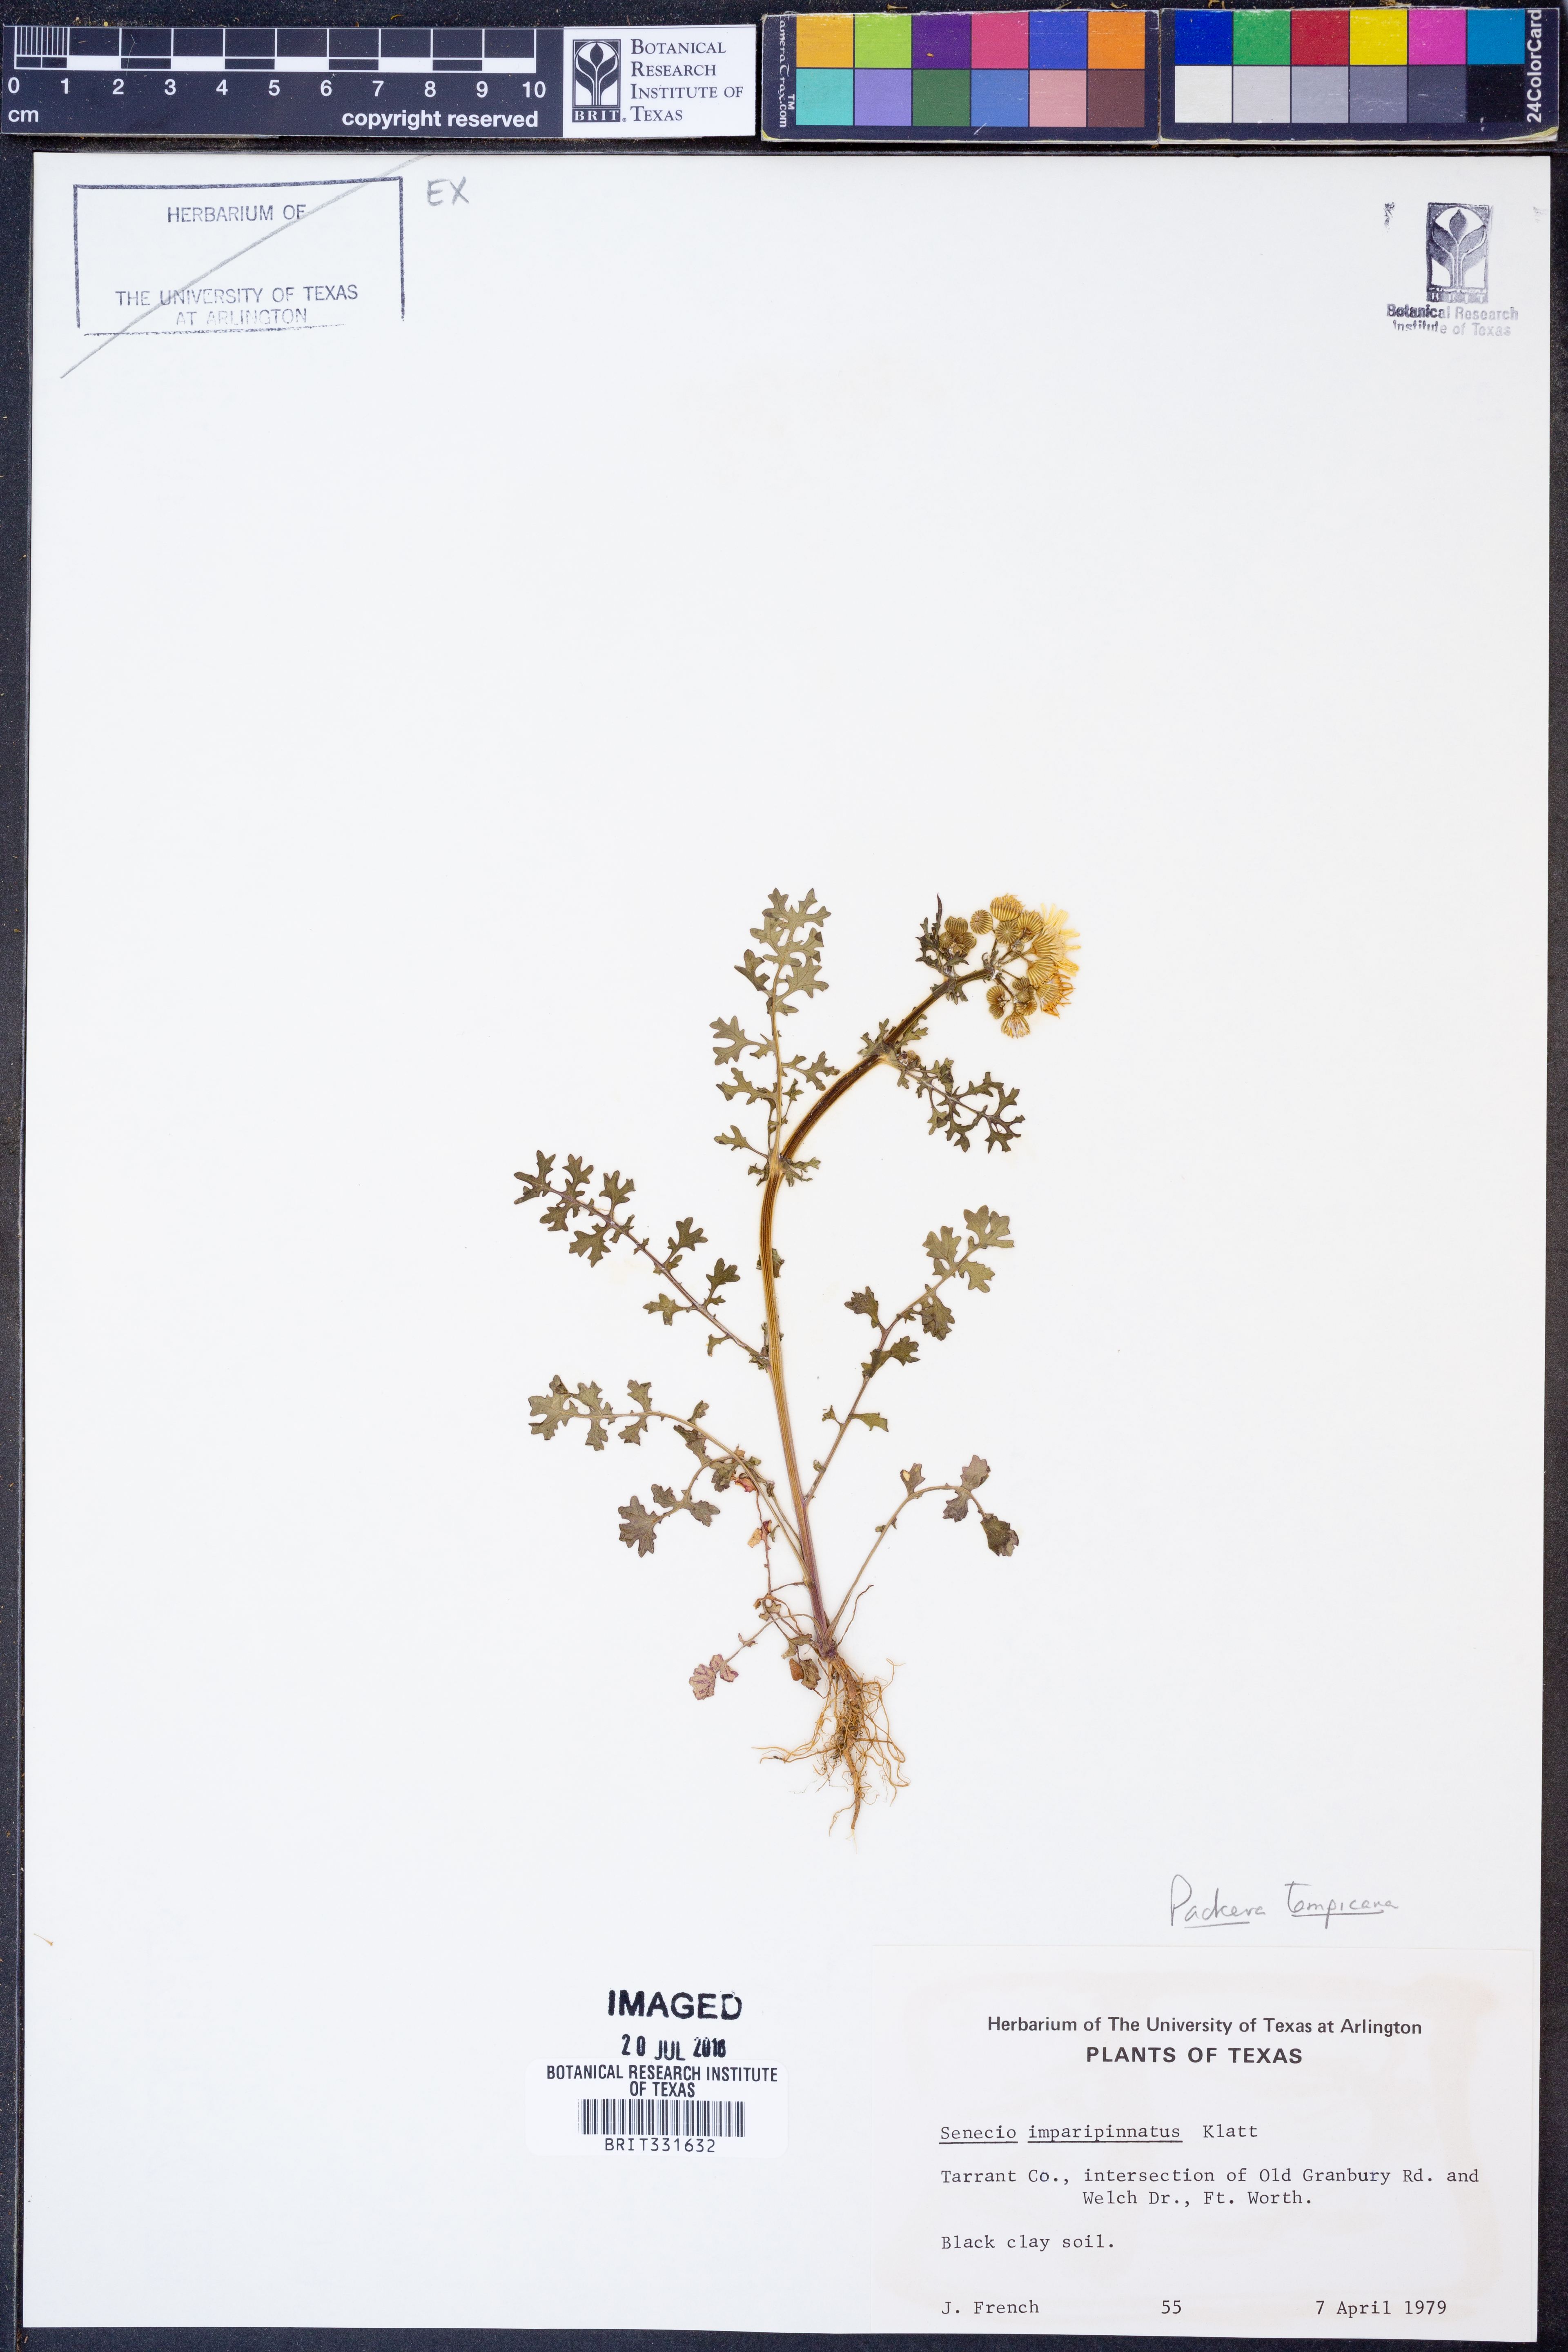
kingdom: Plantae
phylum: Tracheophyta
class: Magnoliopsida
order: Asterales
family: Asteraceae
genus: Packera
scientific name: Packera tampicana
